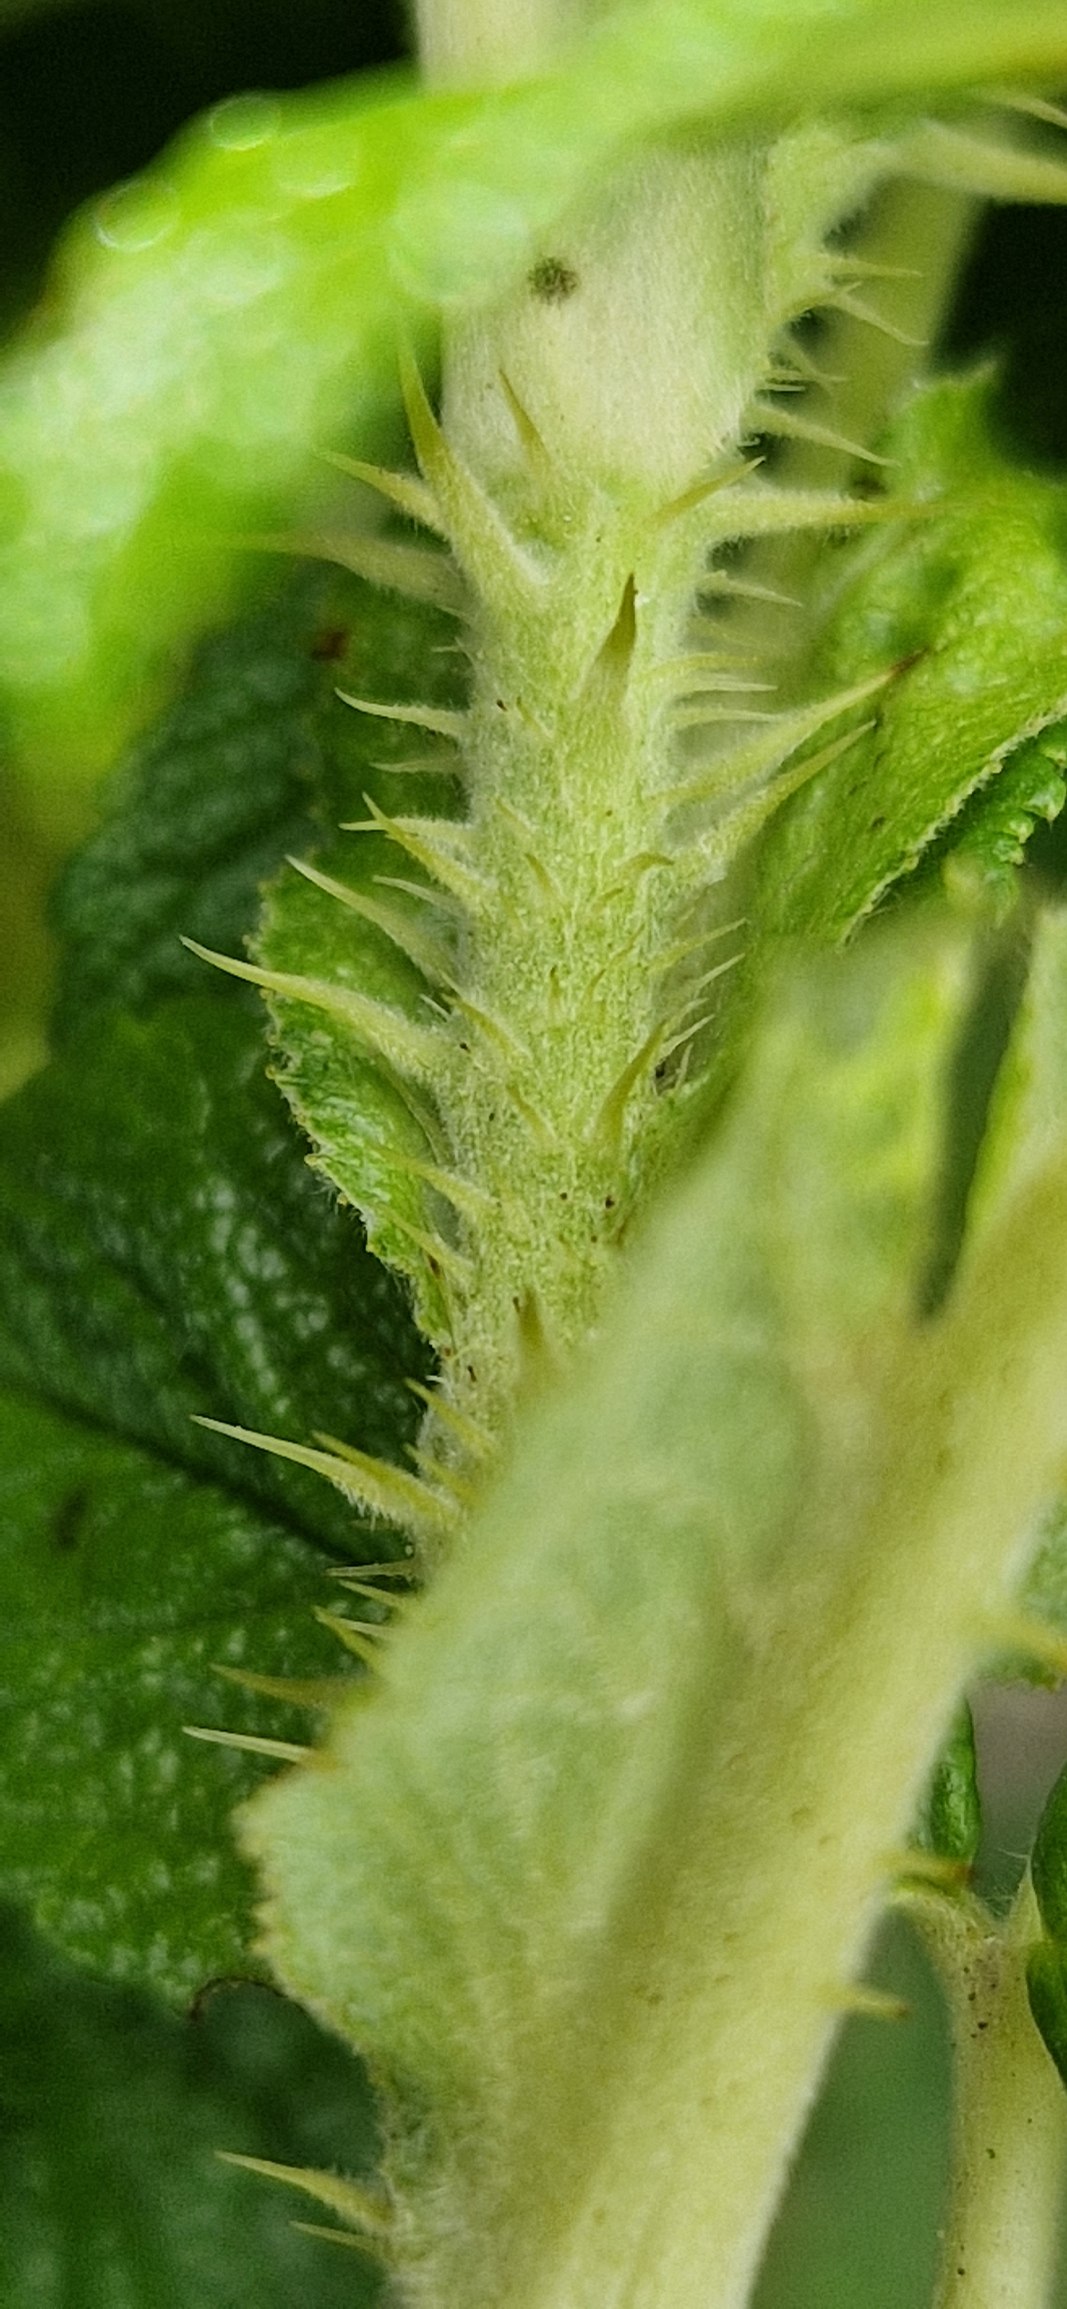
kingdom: Plantae
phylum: Tracheophyta
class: Magnoliopsida
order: Rosales
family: Rosaceae
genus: Rosa
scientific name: Rosa rugosa
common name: Rynket rose
